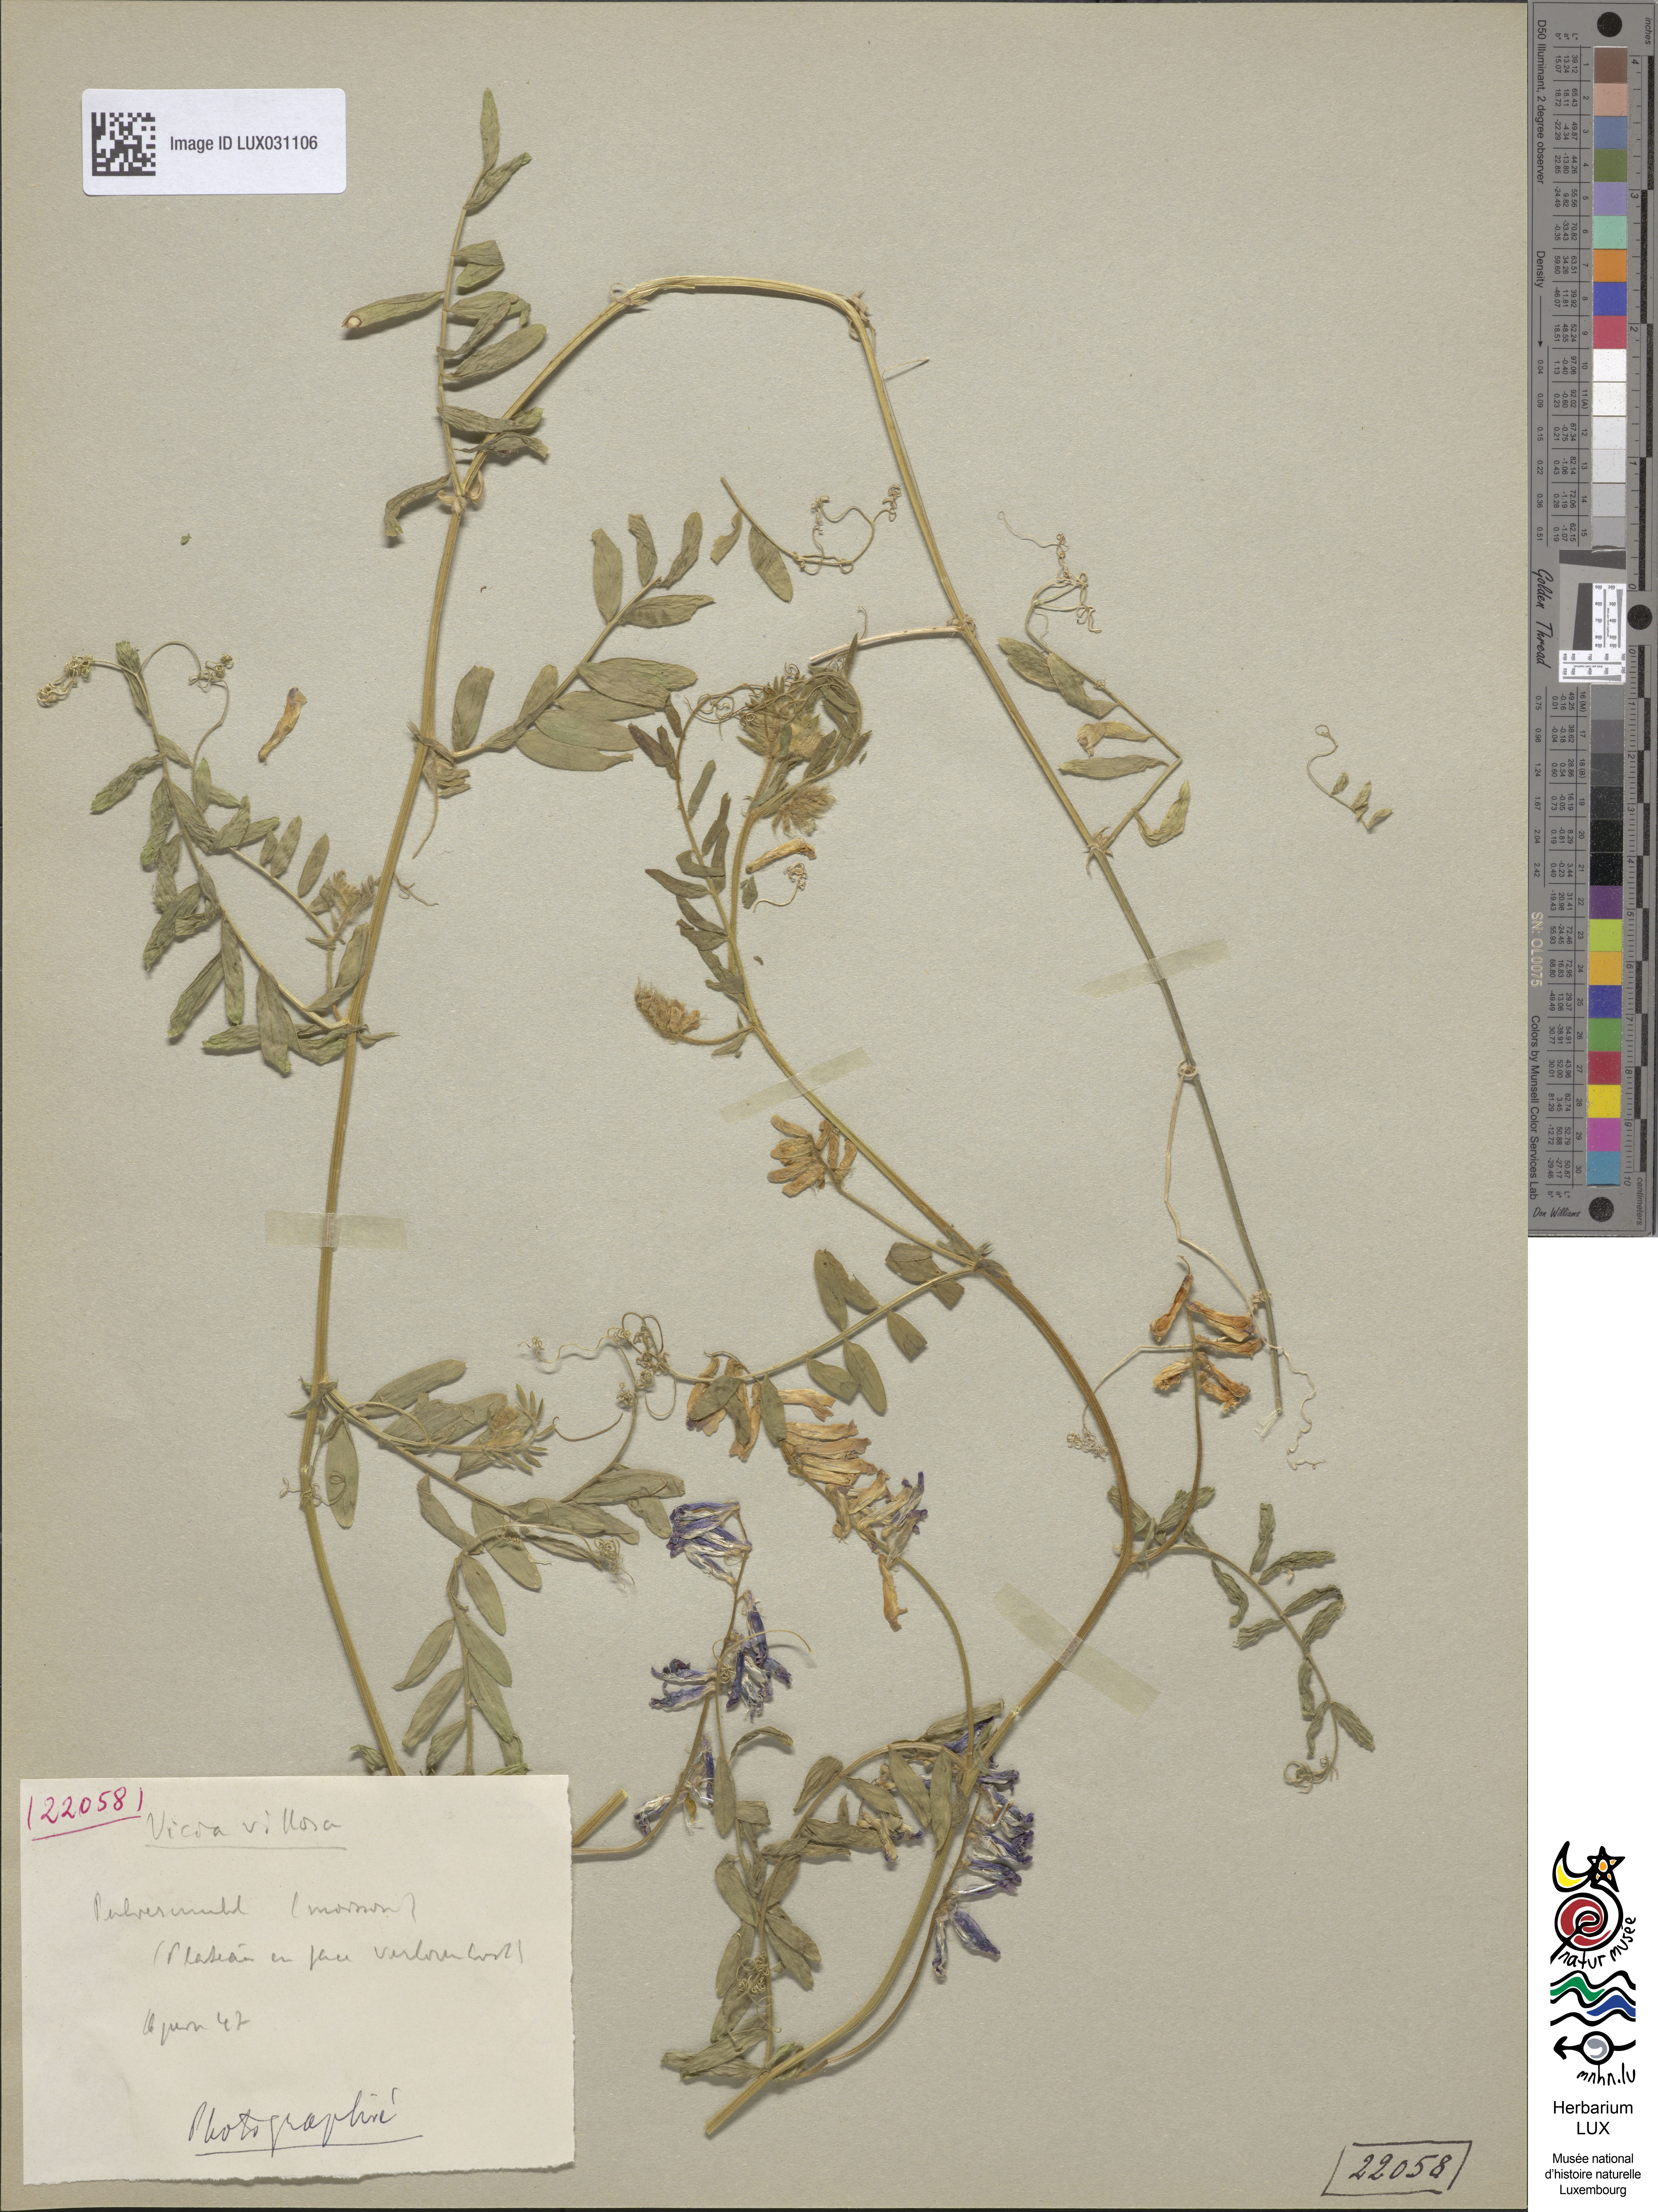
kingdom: Plantae
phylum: Tracheophyta
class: Magnoliopsida
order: Fabales
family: Fabaceae
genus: Vicia
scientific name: Vicia villosa
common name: Fodder vetch
